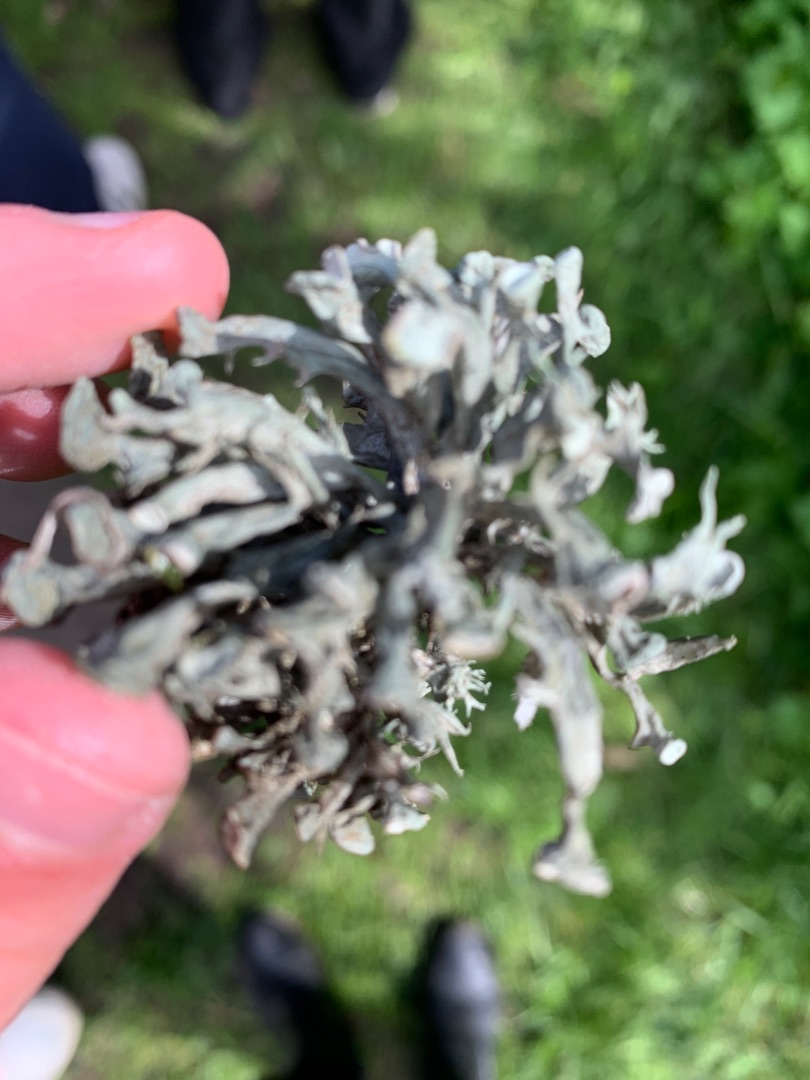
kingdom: Fungi
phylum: Ascomycota
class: Lecanoromycetes
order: Lecanorales
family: Ramalinaceae
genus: Ramalina
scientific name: Ramalina fastigiata
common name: Tue-grenlav
